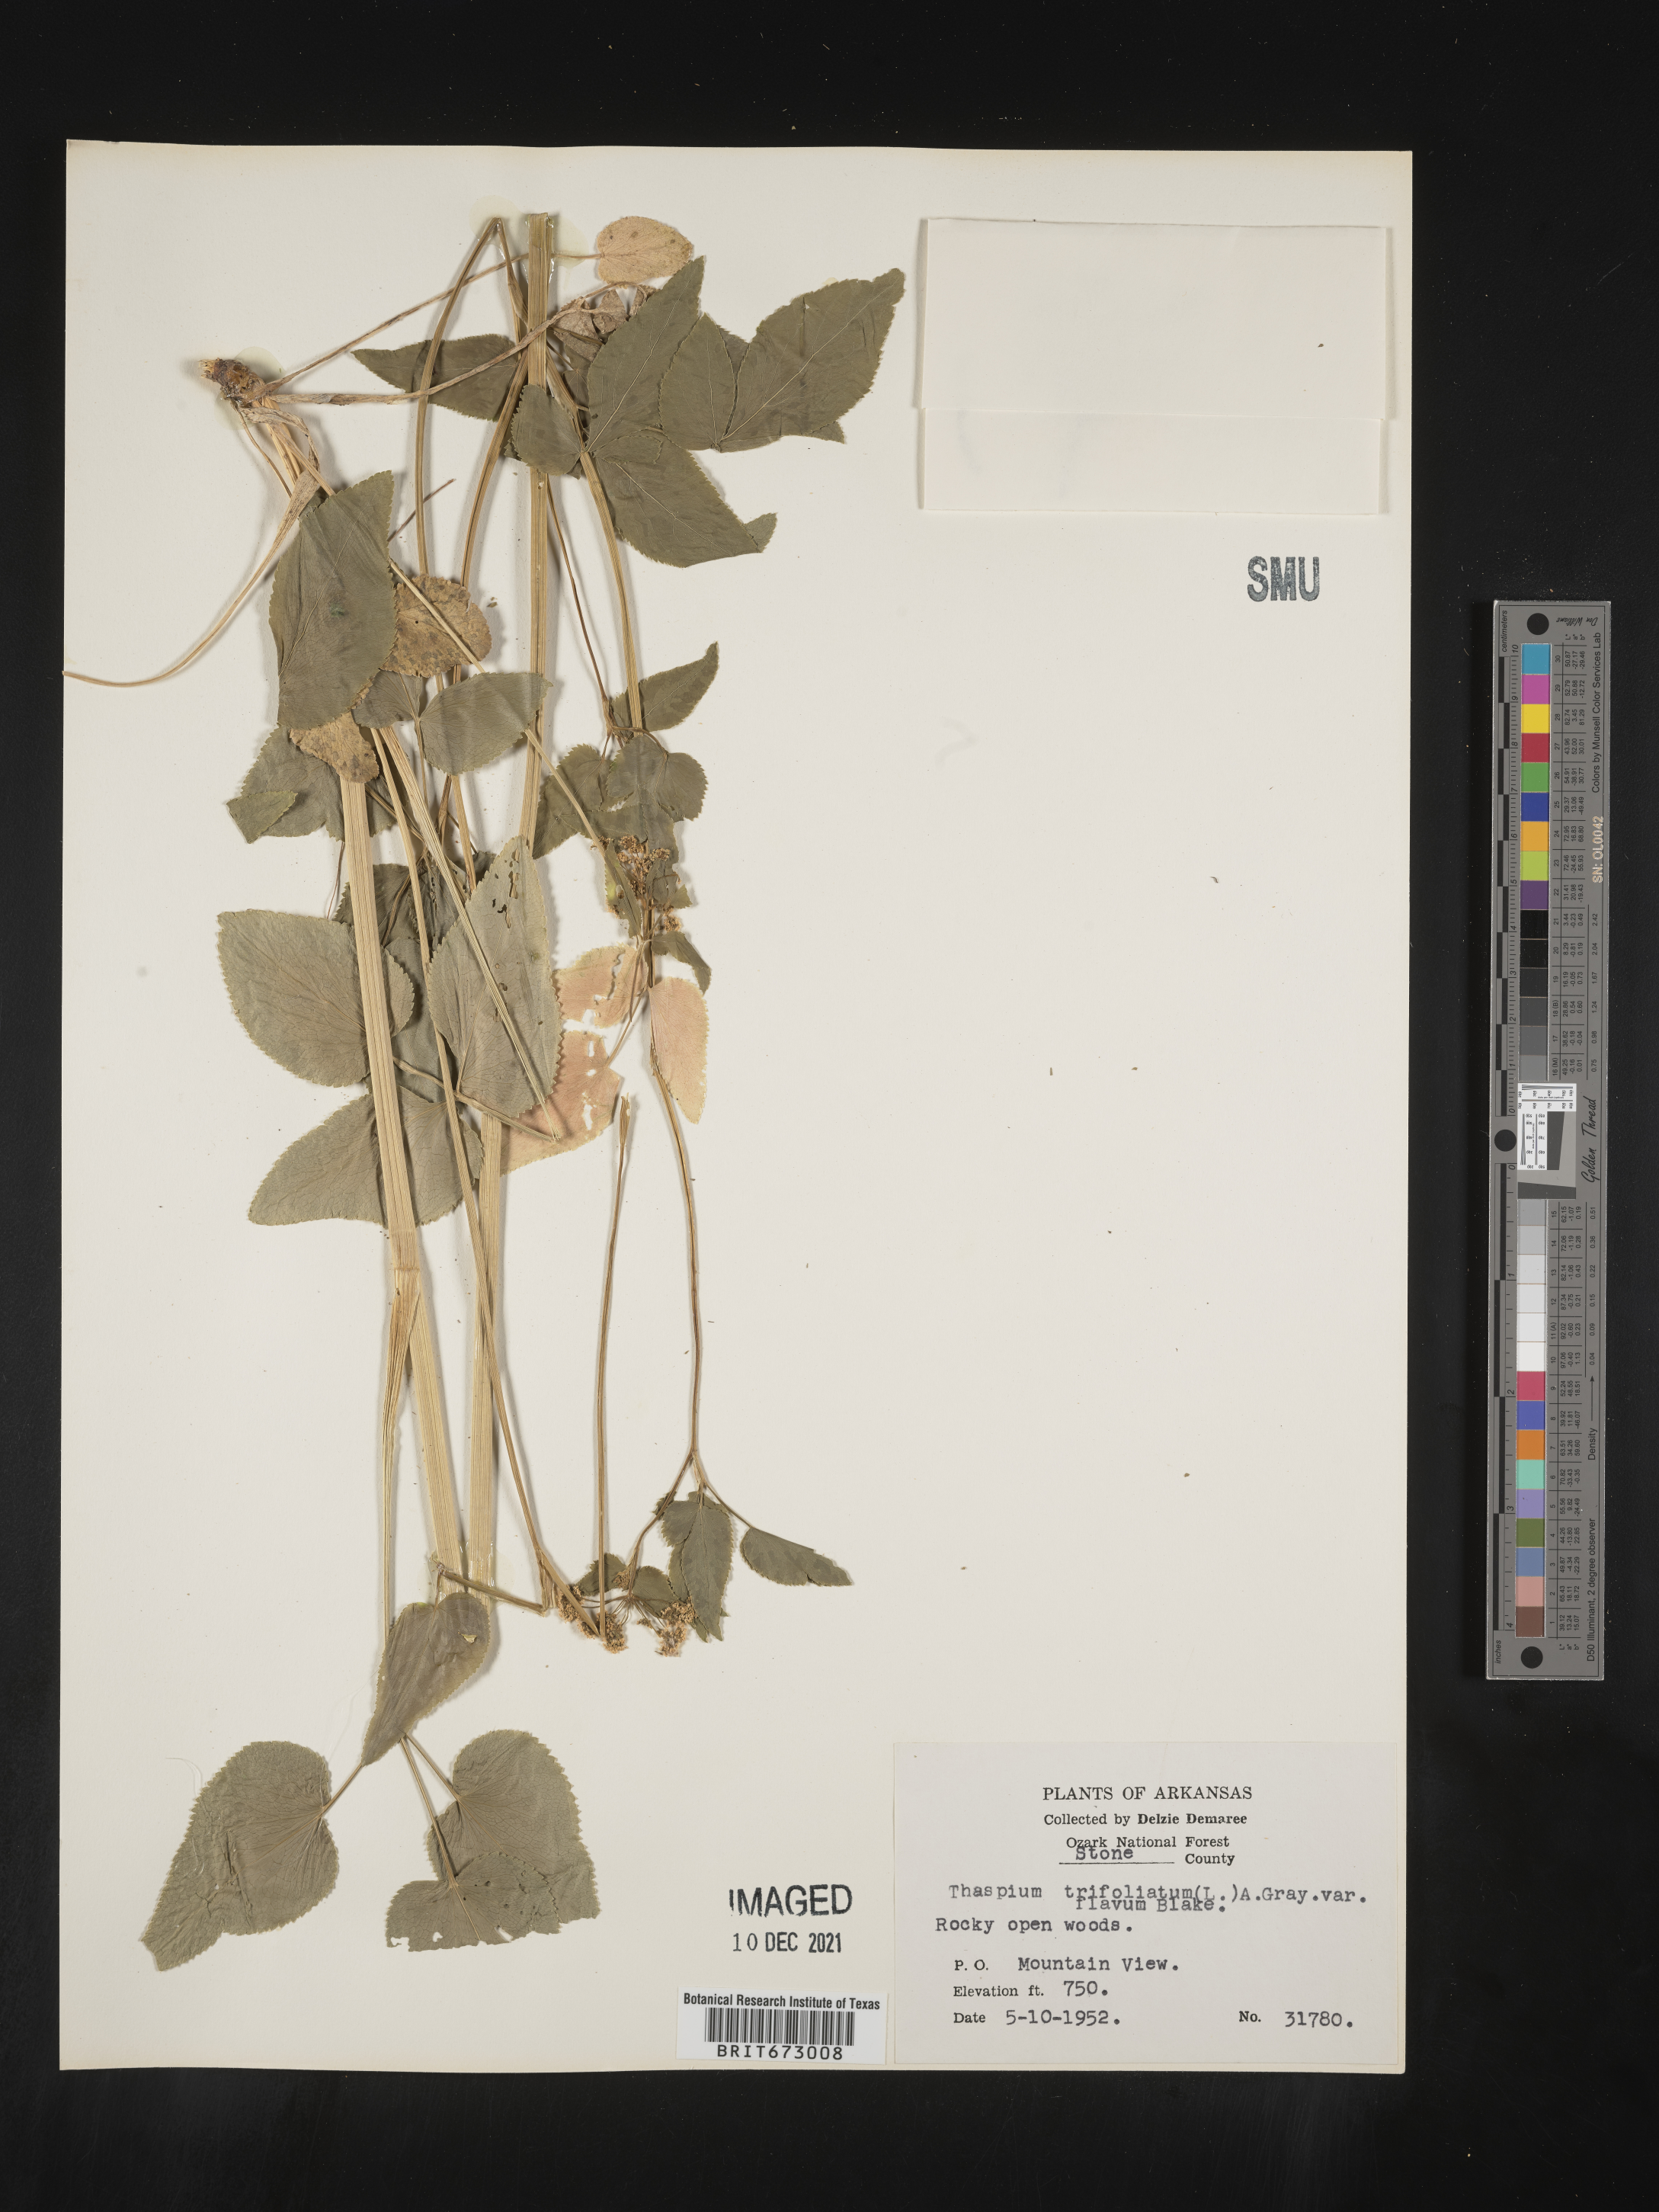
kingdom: Plantae
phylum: Tracheophyta
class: Magnoliopsida
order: Apiales
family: Apiaceae
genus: Thaspium
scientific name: Thaspium
